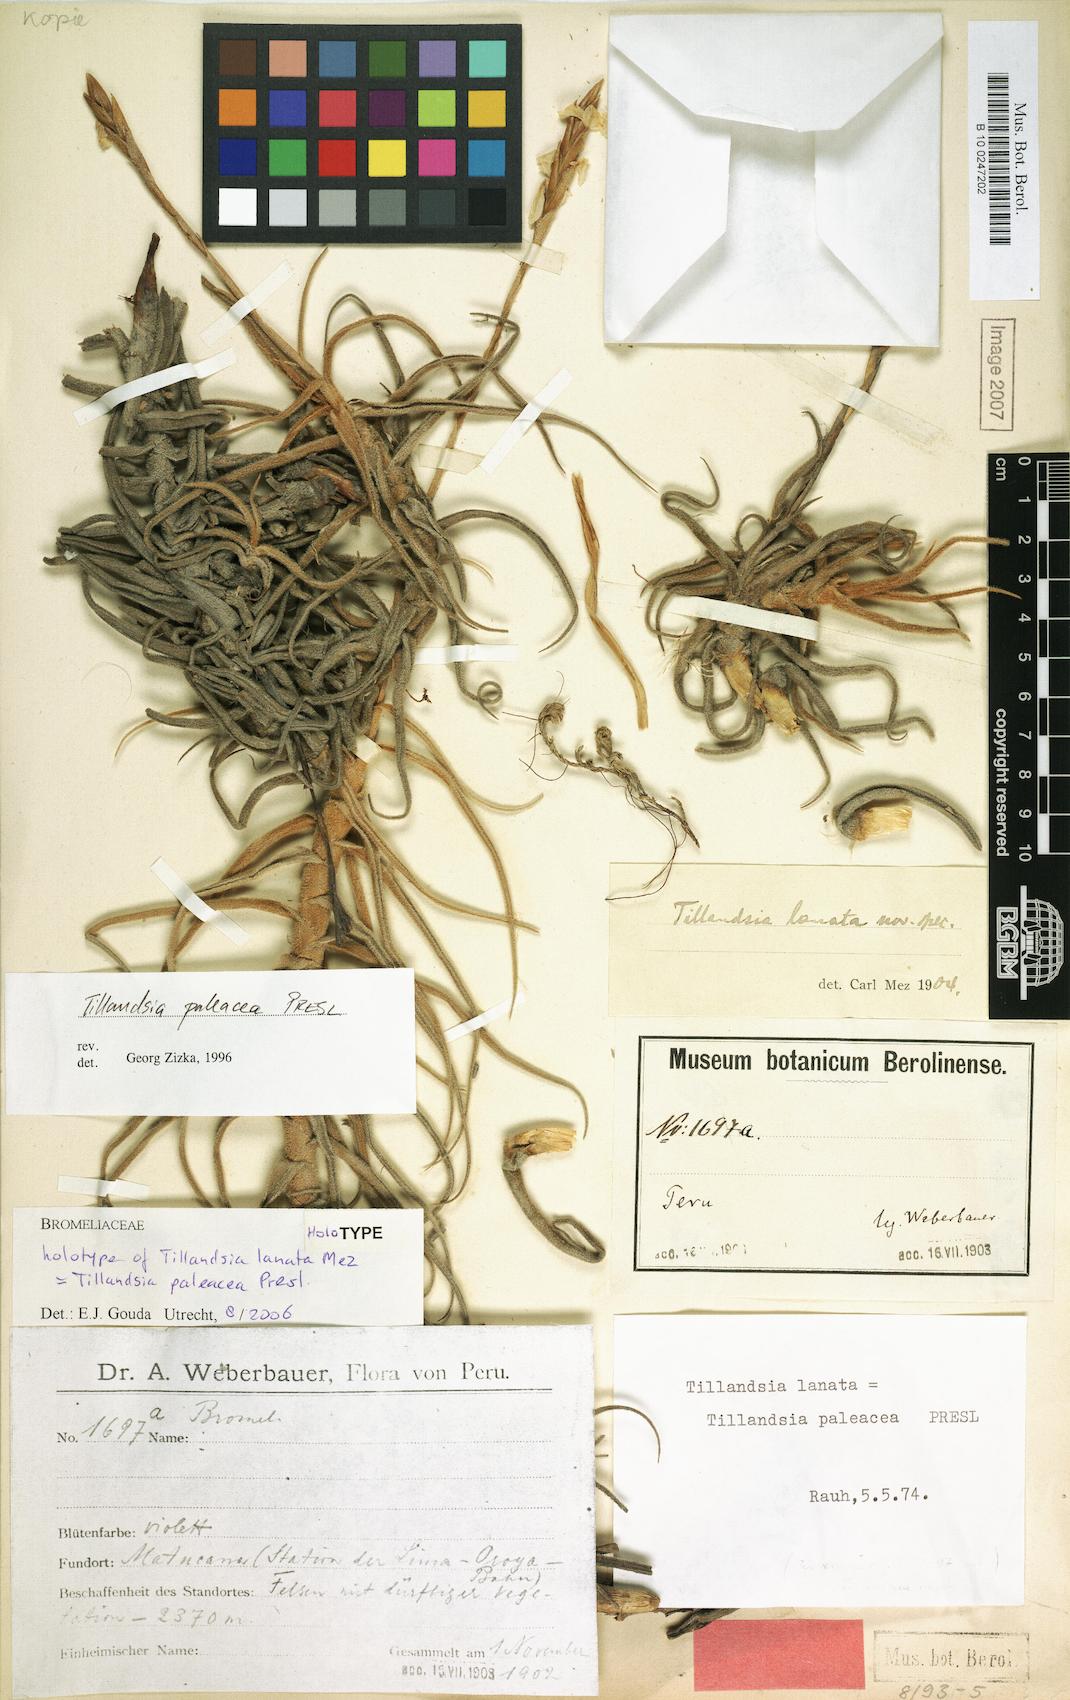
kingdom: Plantae
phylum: Tracheophyta
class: Liliopsida
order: Poales
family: Bromeliaceae
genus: Tillandsia
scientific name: Tillandsia paleacea
